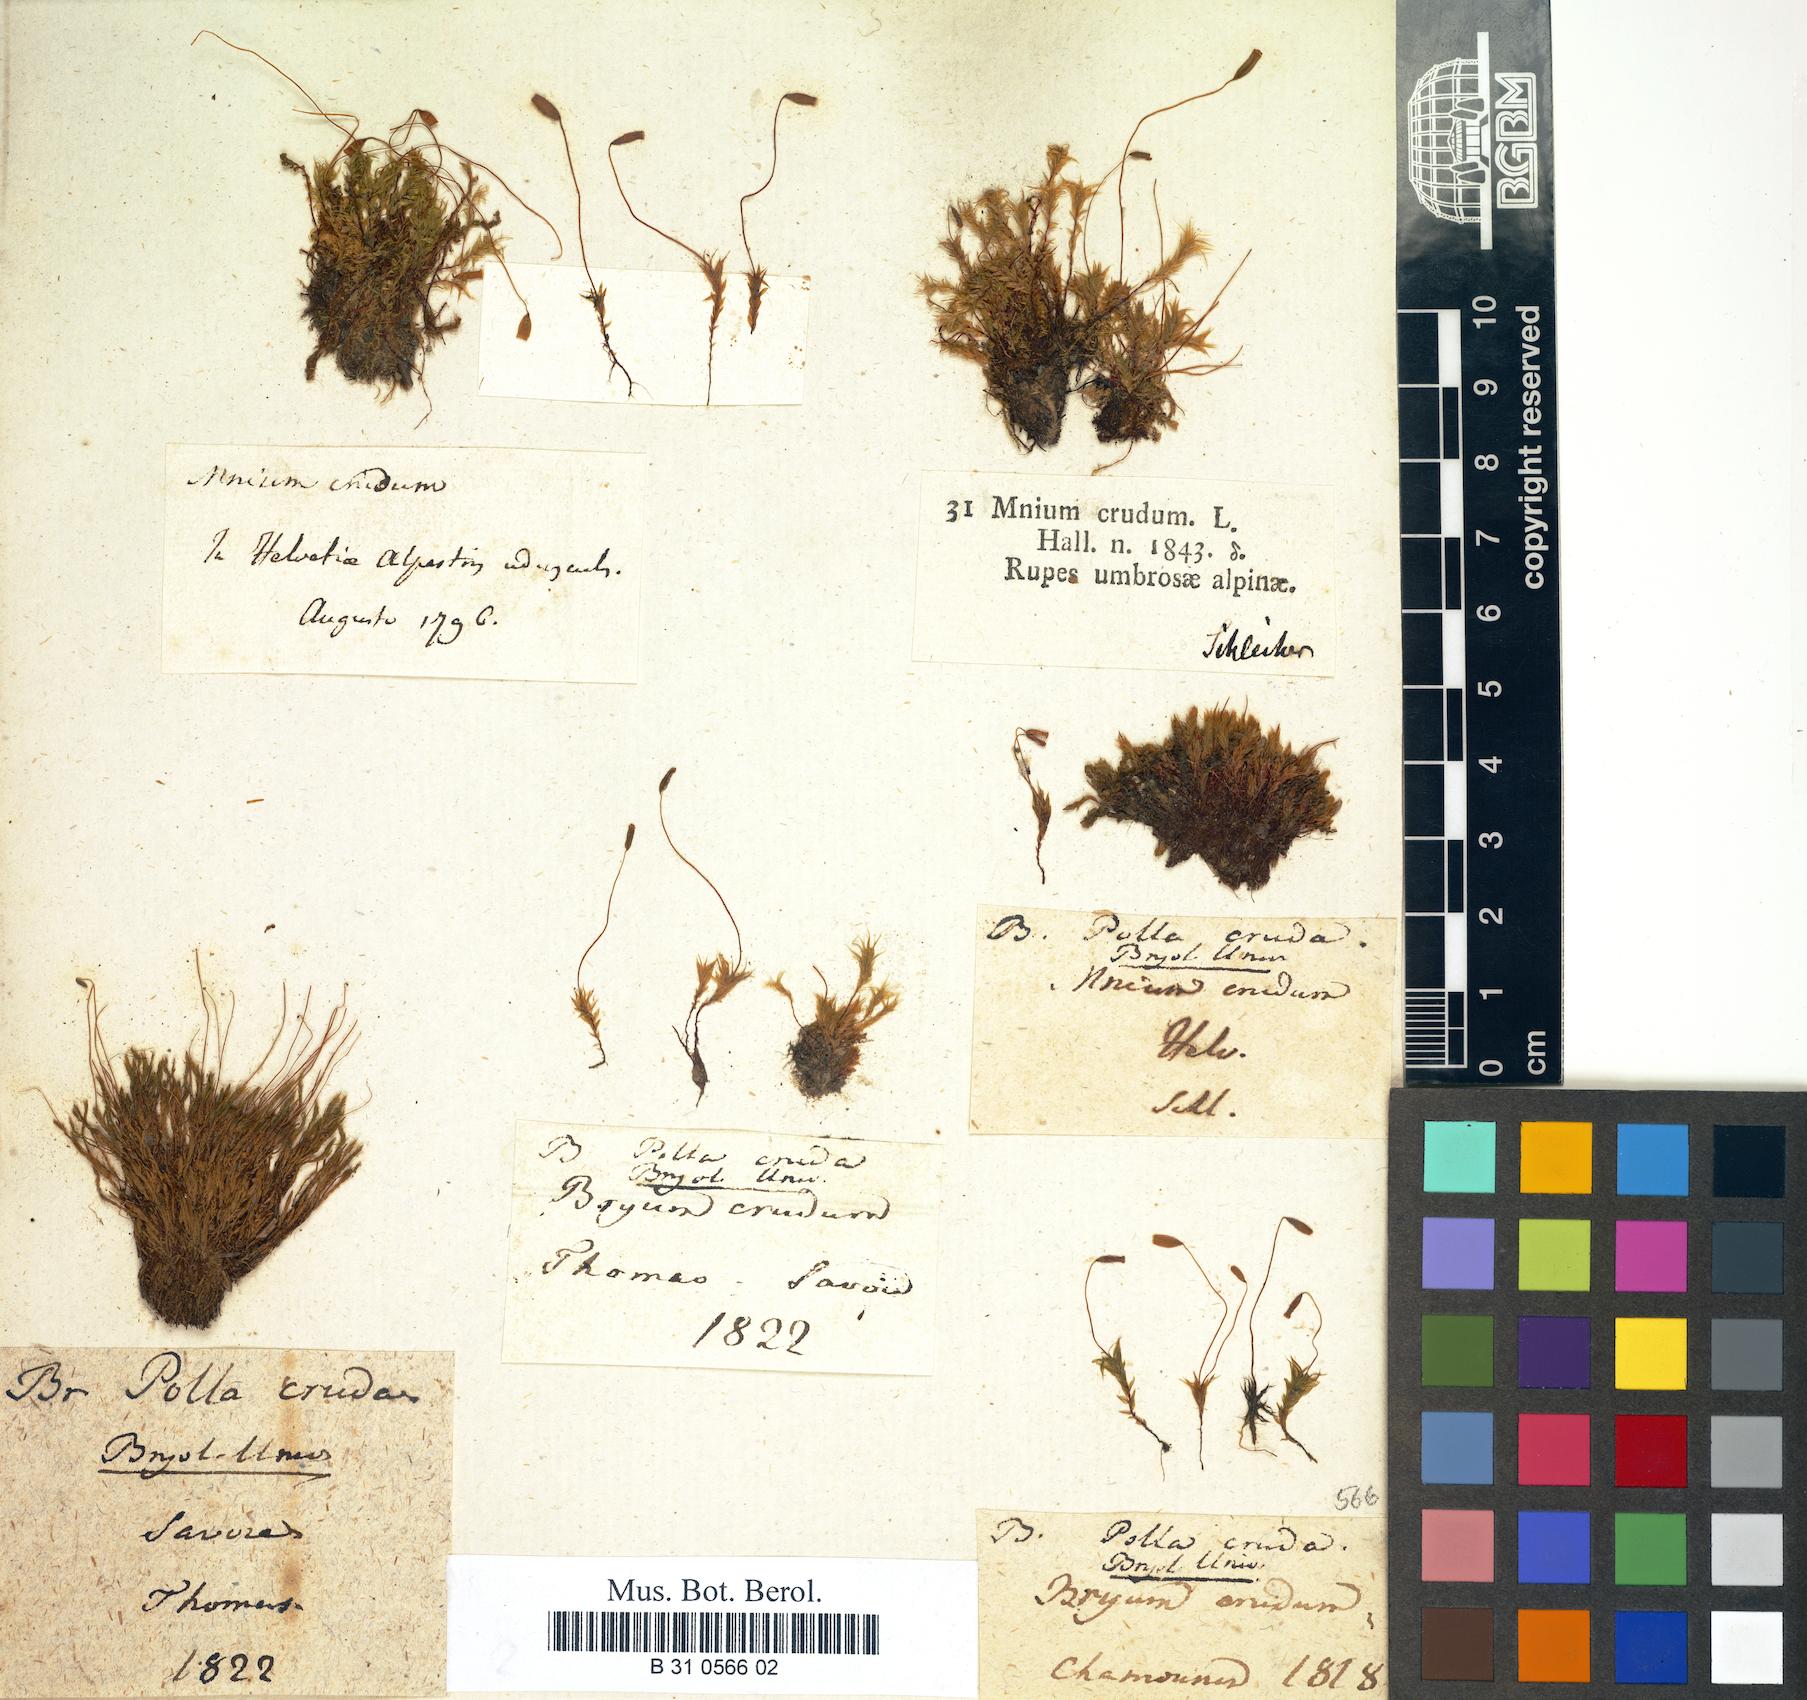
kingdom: Plantae
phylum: Bryophyta
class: Bryopsida
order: Bryales
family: Mniaceae
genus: Pohlia
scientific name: Pohlia cruda
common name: Opal nodding moss
